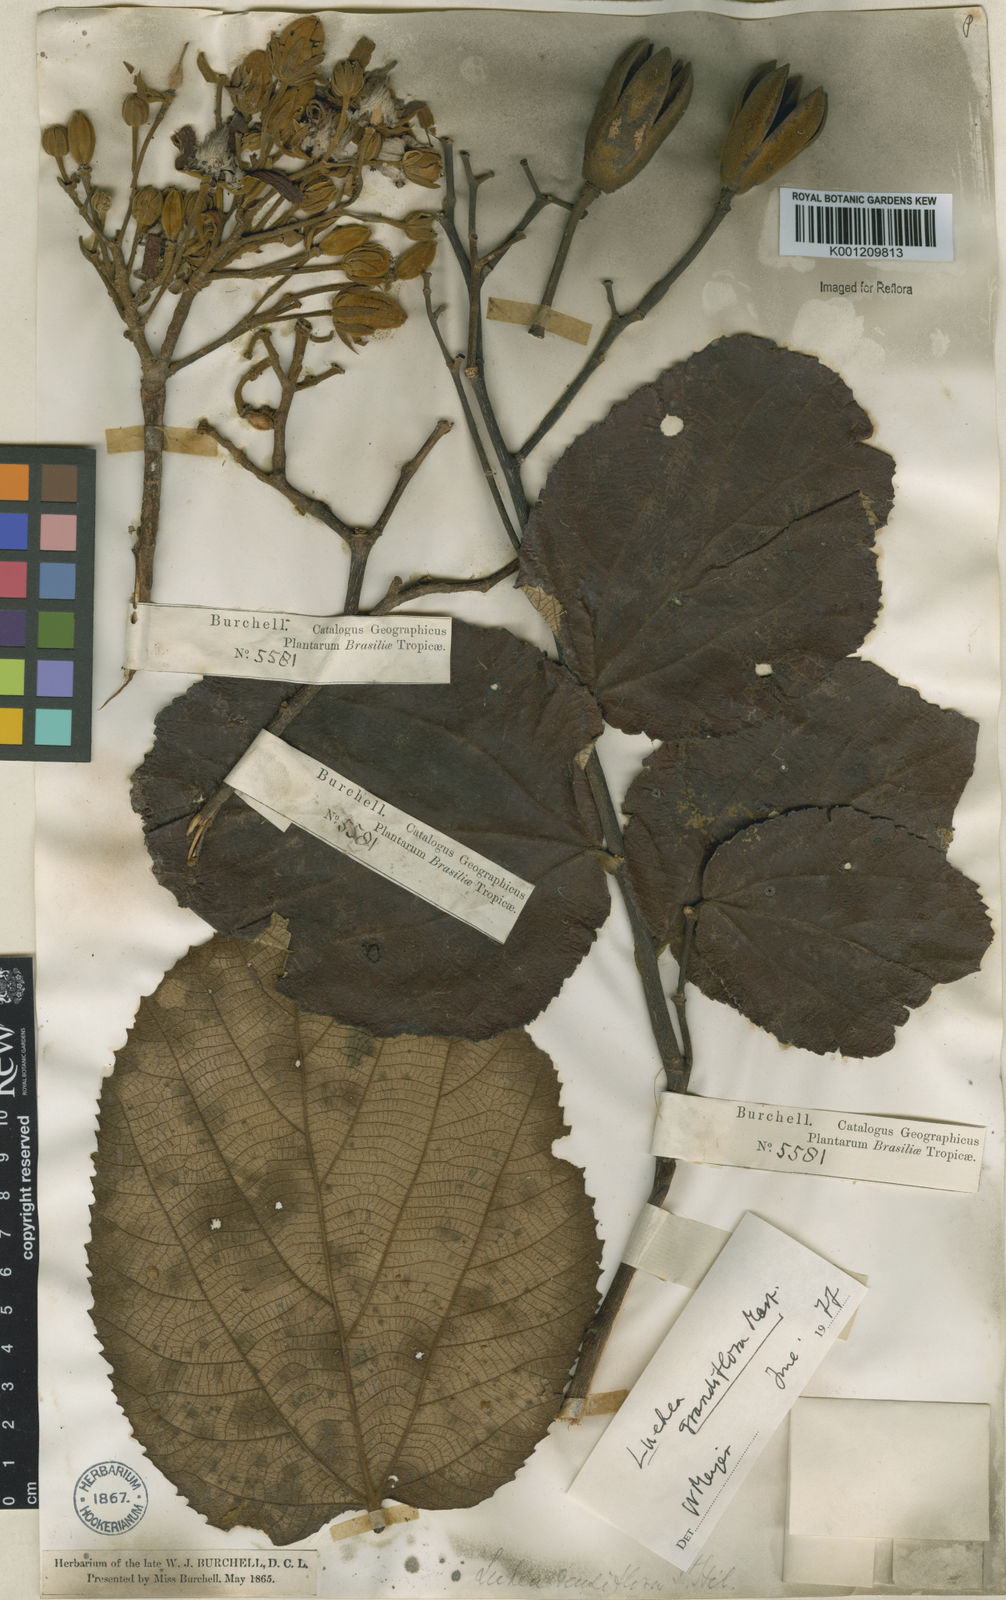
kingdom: Plantae
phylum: Tracheophyta
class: Magnoliopsida
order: Malvales
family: Malvaceae
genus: Luehea
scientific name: Luehea grandiflora
